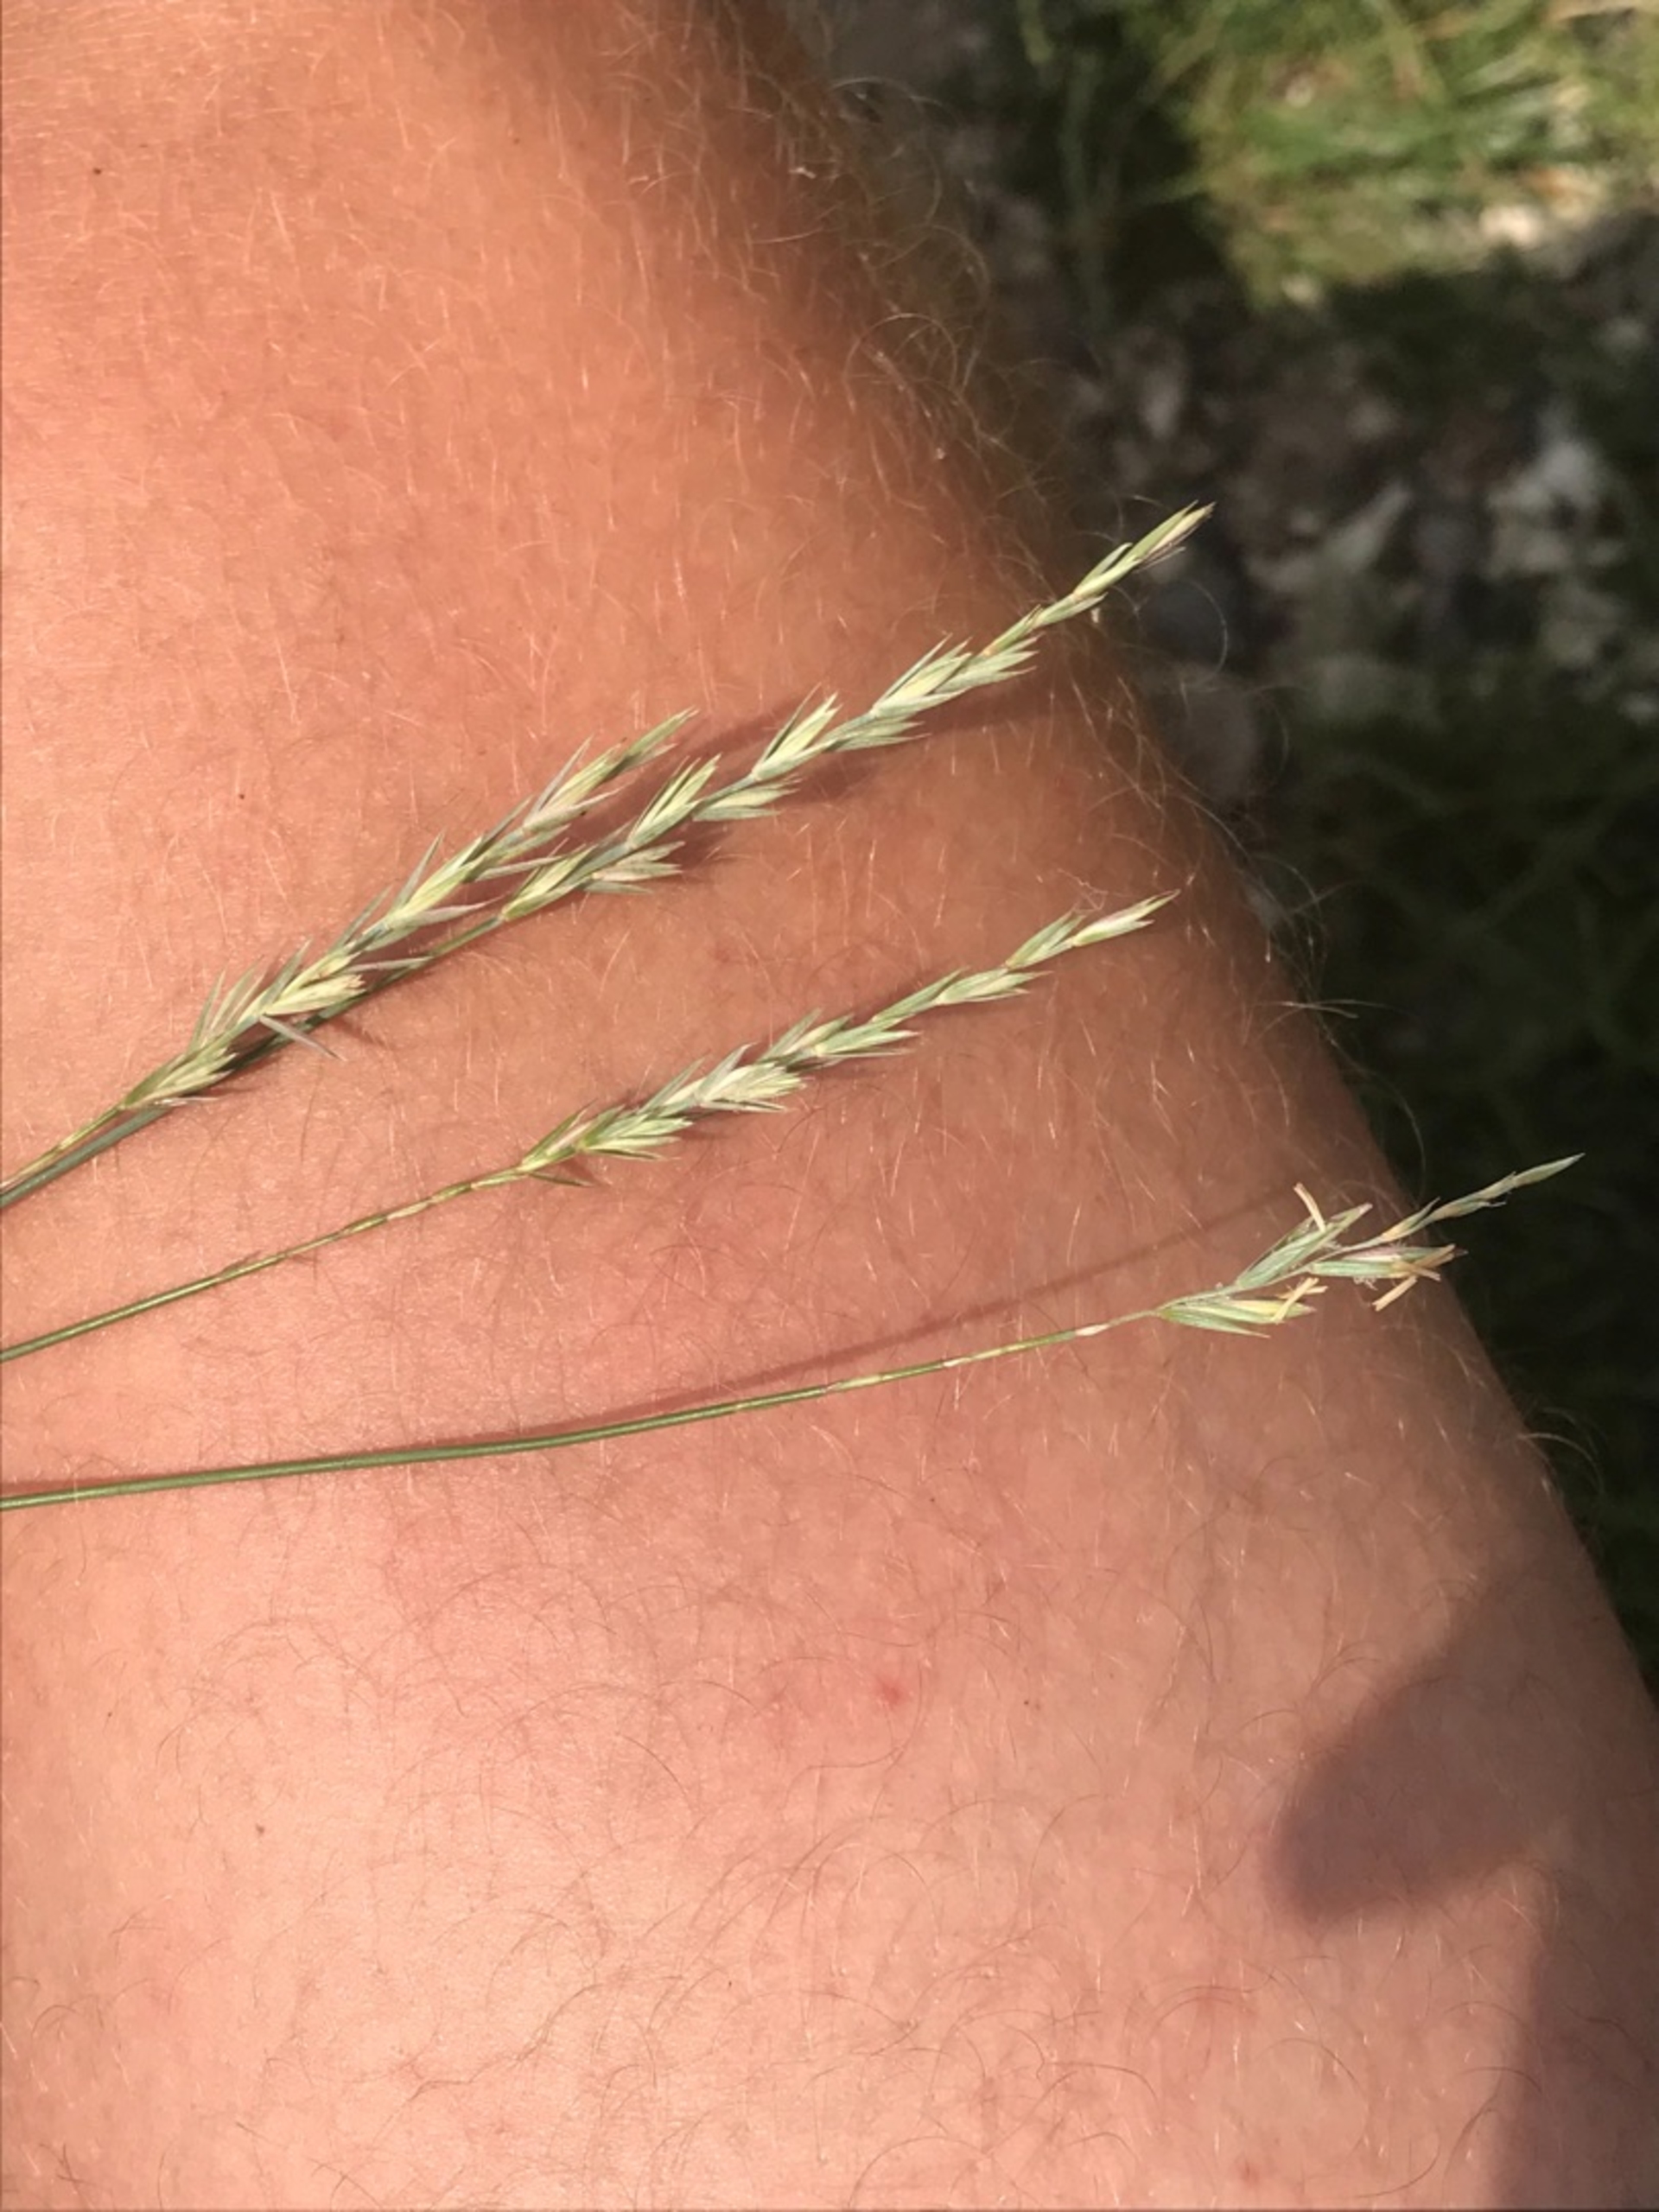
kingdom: Plantae
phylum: Tracheophyta
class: Liliopsida
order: Poales
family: Poaceae
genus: Elymus
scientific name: Elymus repens
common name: Almindelig kvik
